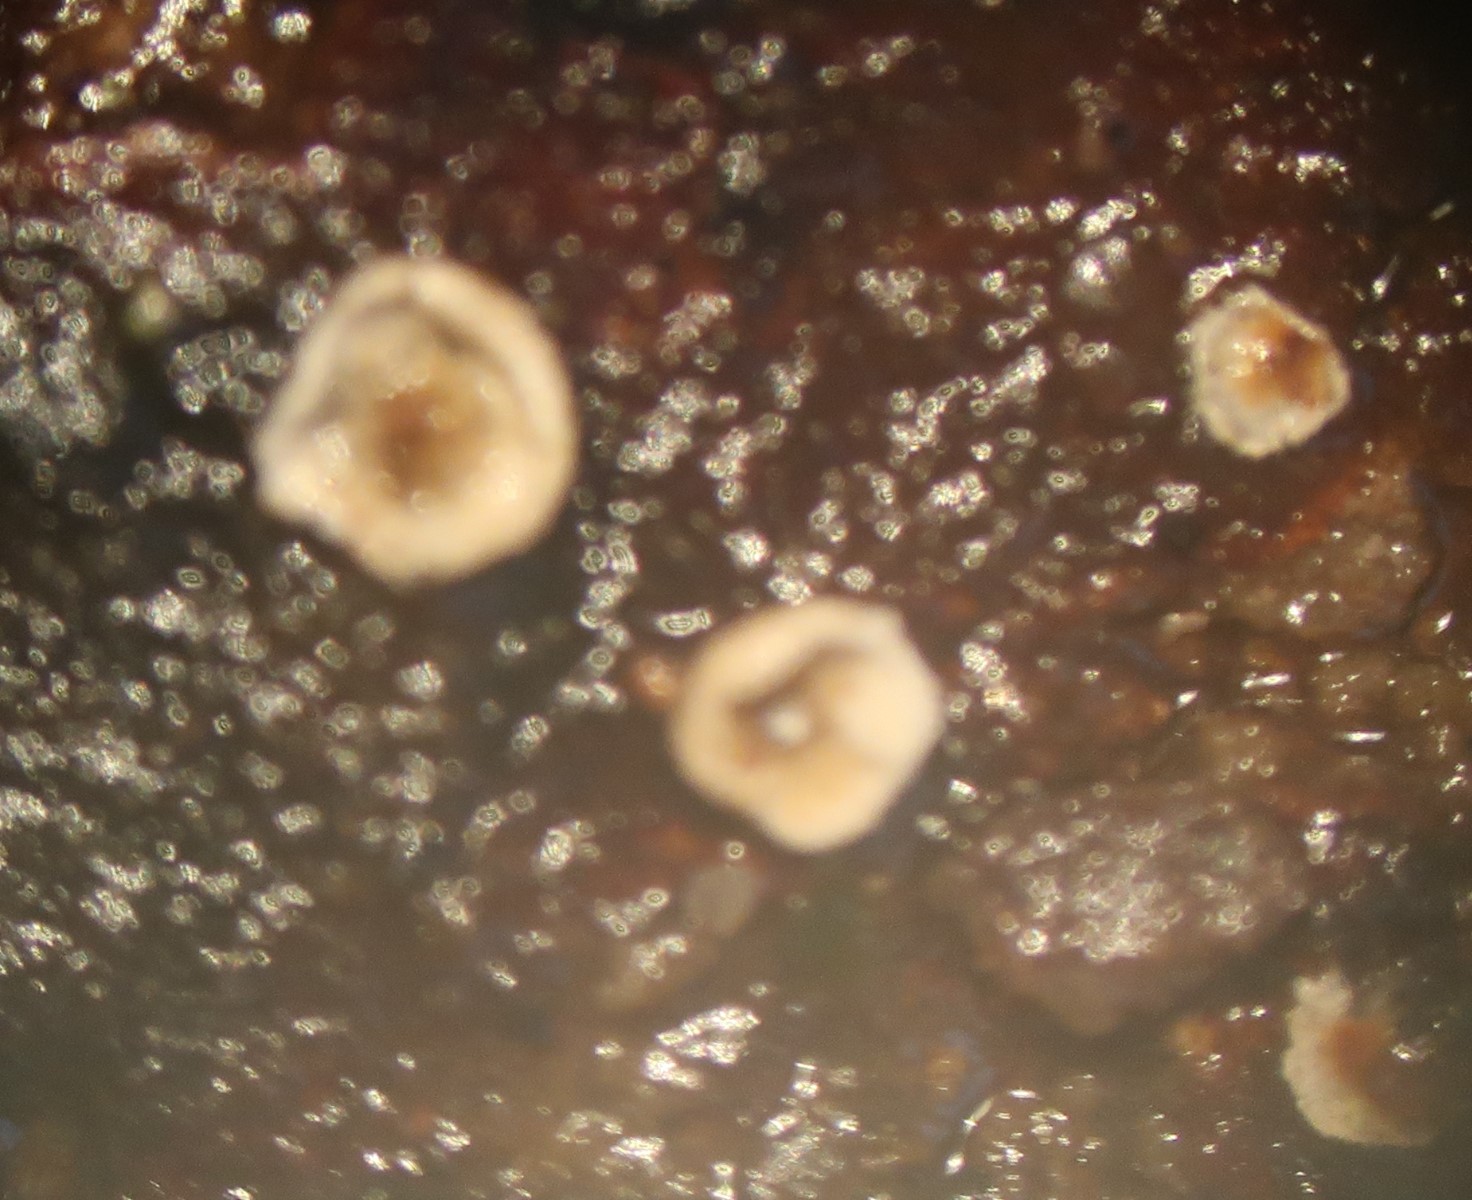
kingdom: Fungi
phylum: Basidiomycota
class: Agaricomycetes
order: Agaricales
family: Crepidotaceae
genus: Pellidiscus
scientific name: Pellidiscus pallidus
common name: skålformet muslingesvamp
